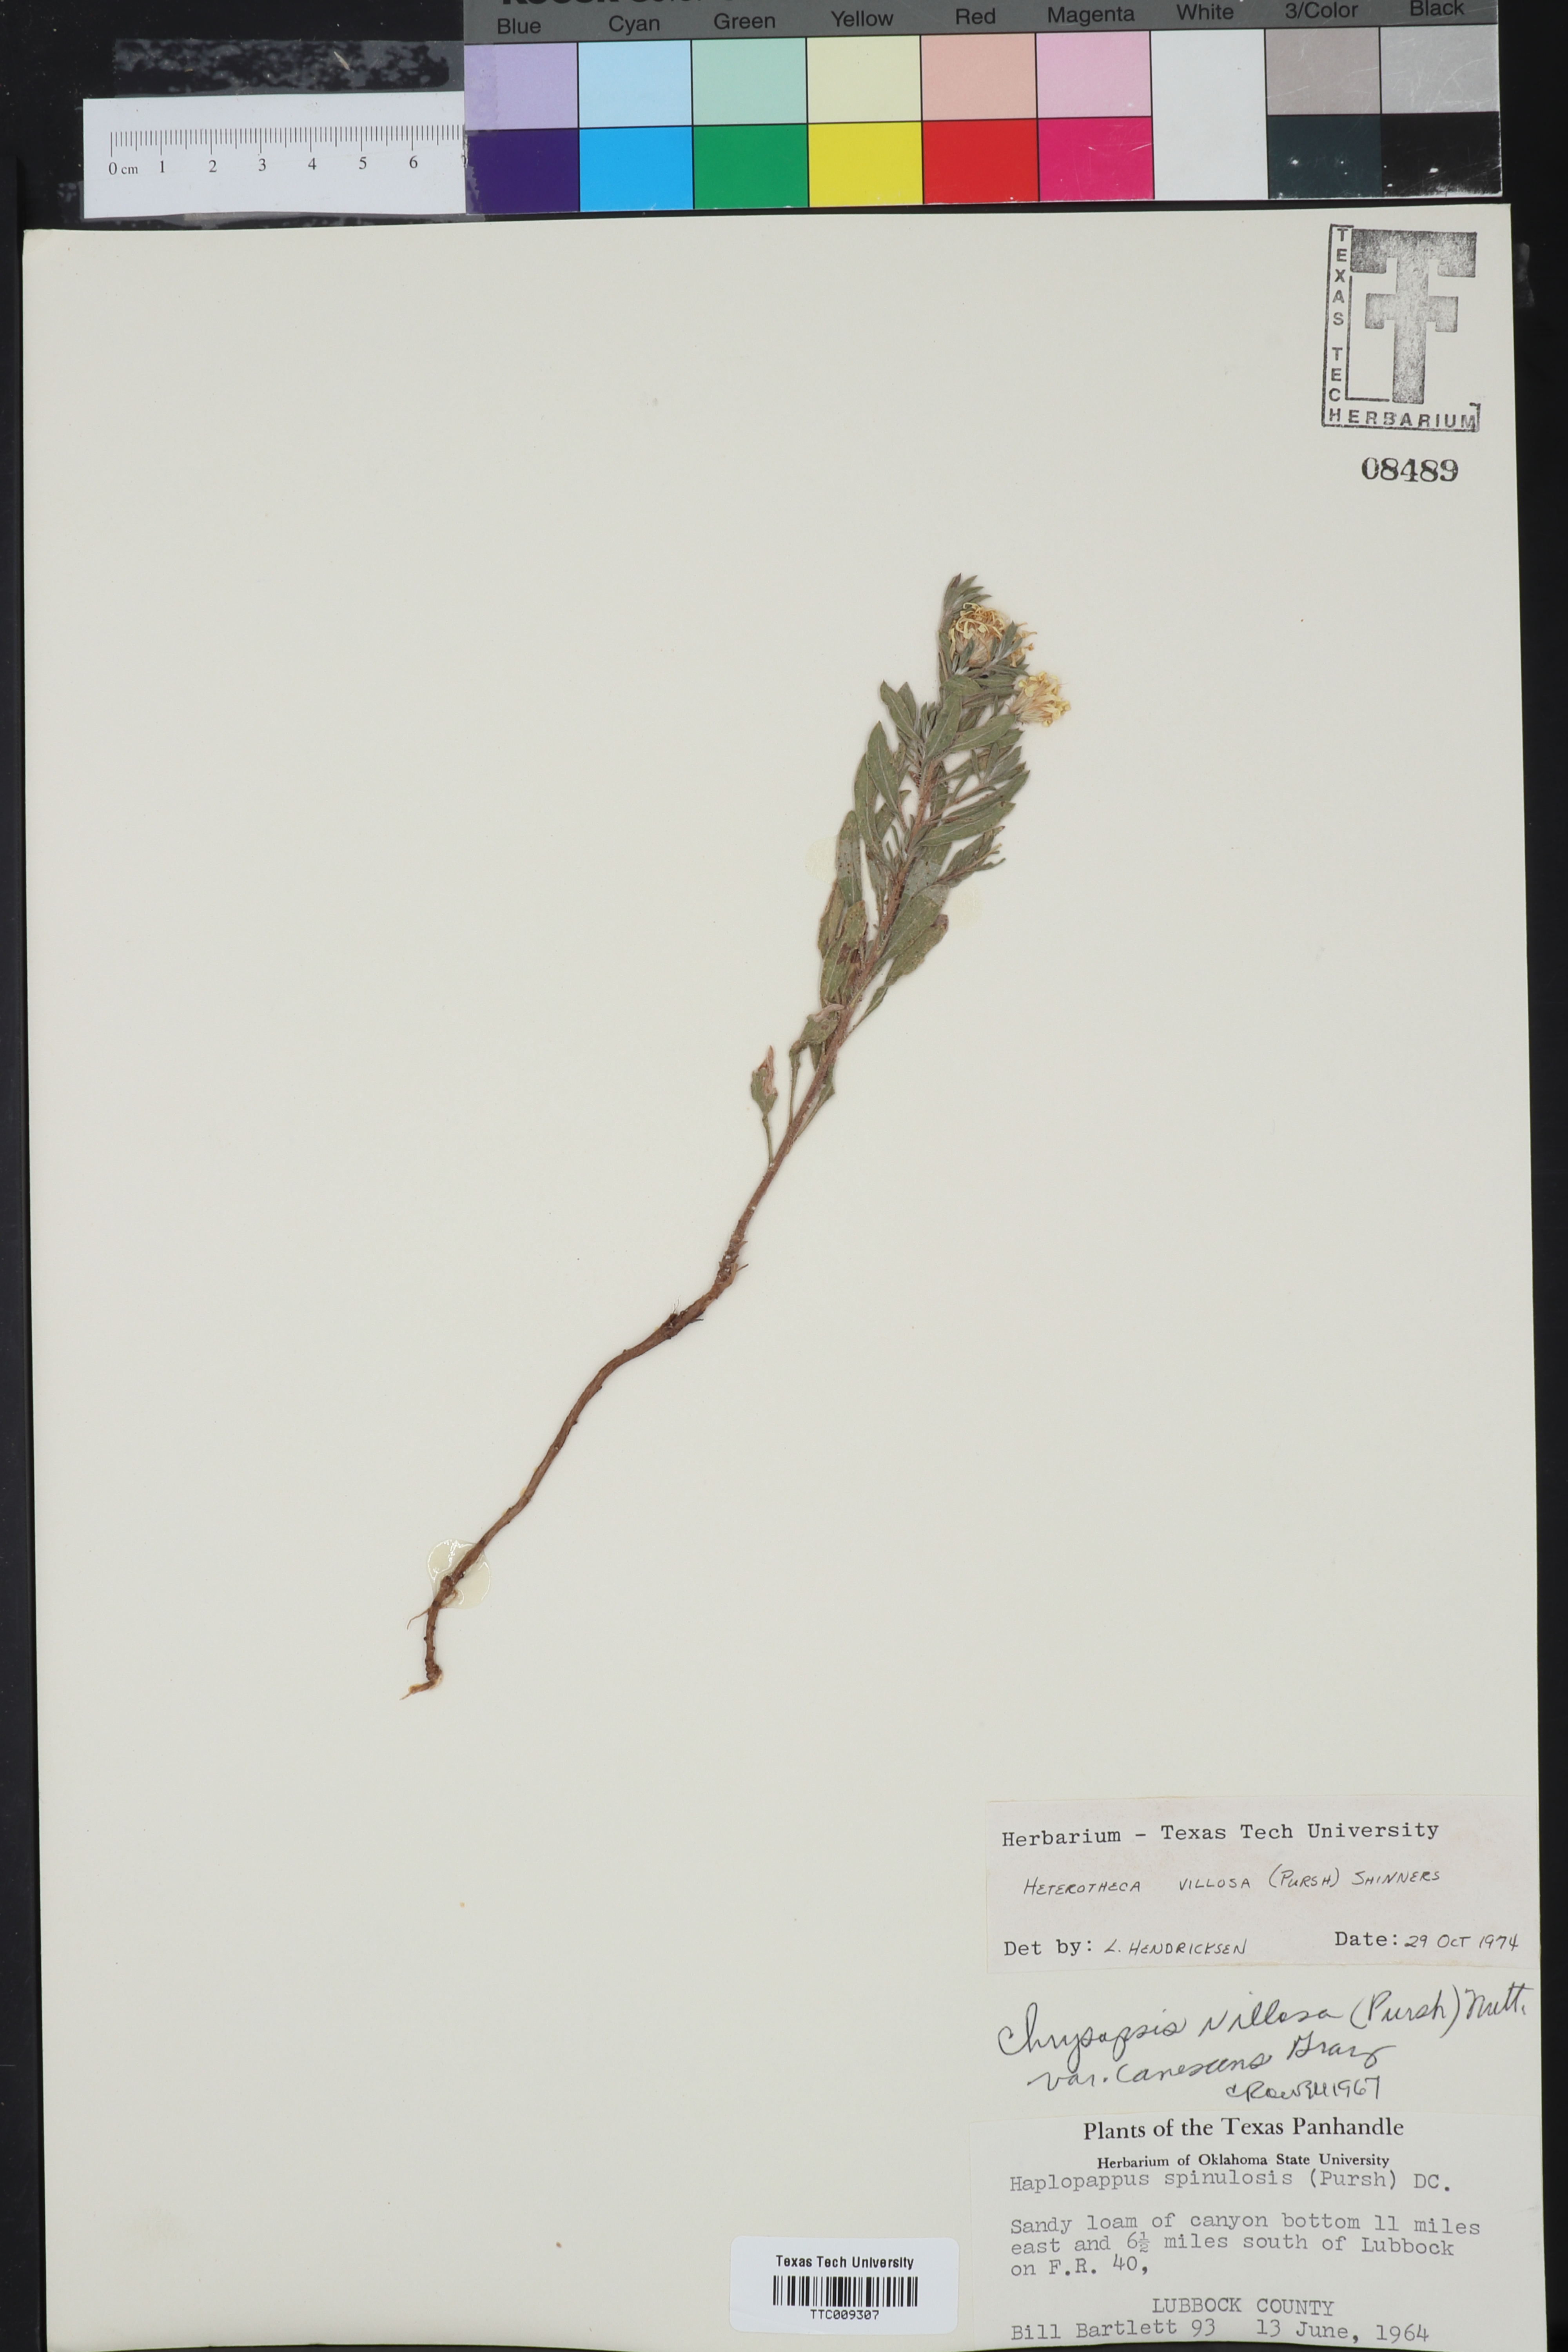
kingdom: Plantae
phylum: Tracheophyta
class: Magnoliopsida
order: Asterales
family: Asteraceae
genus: Heterotheca
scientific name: Heterotheca villosa
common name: Hairy false goldenaster
